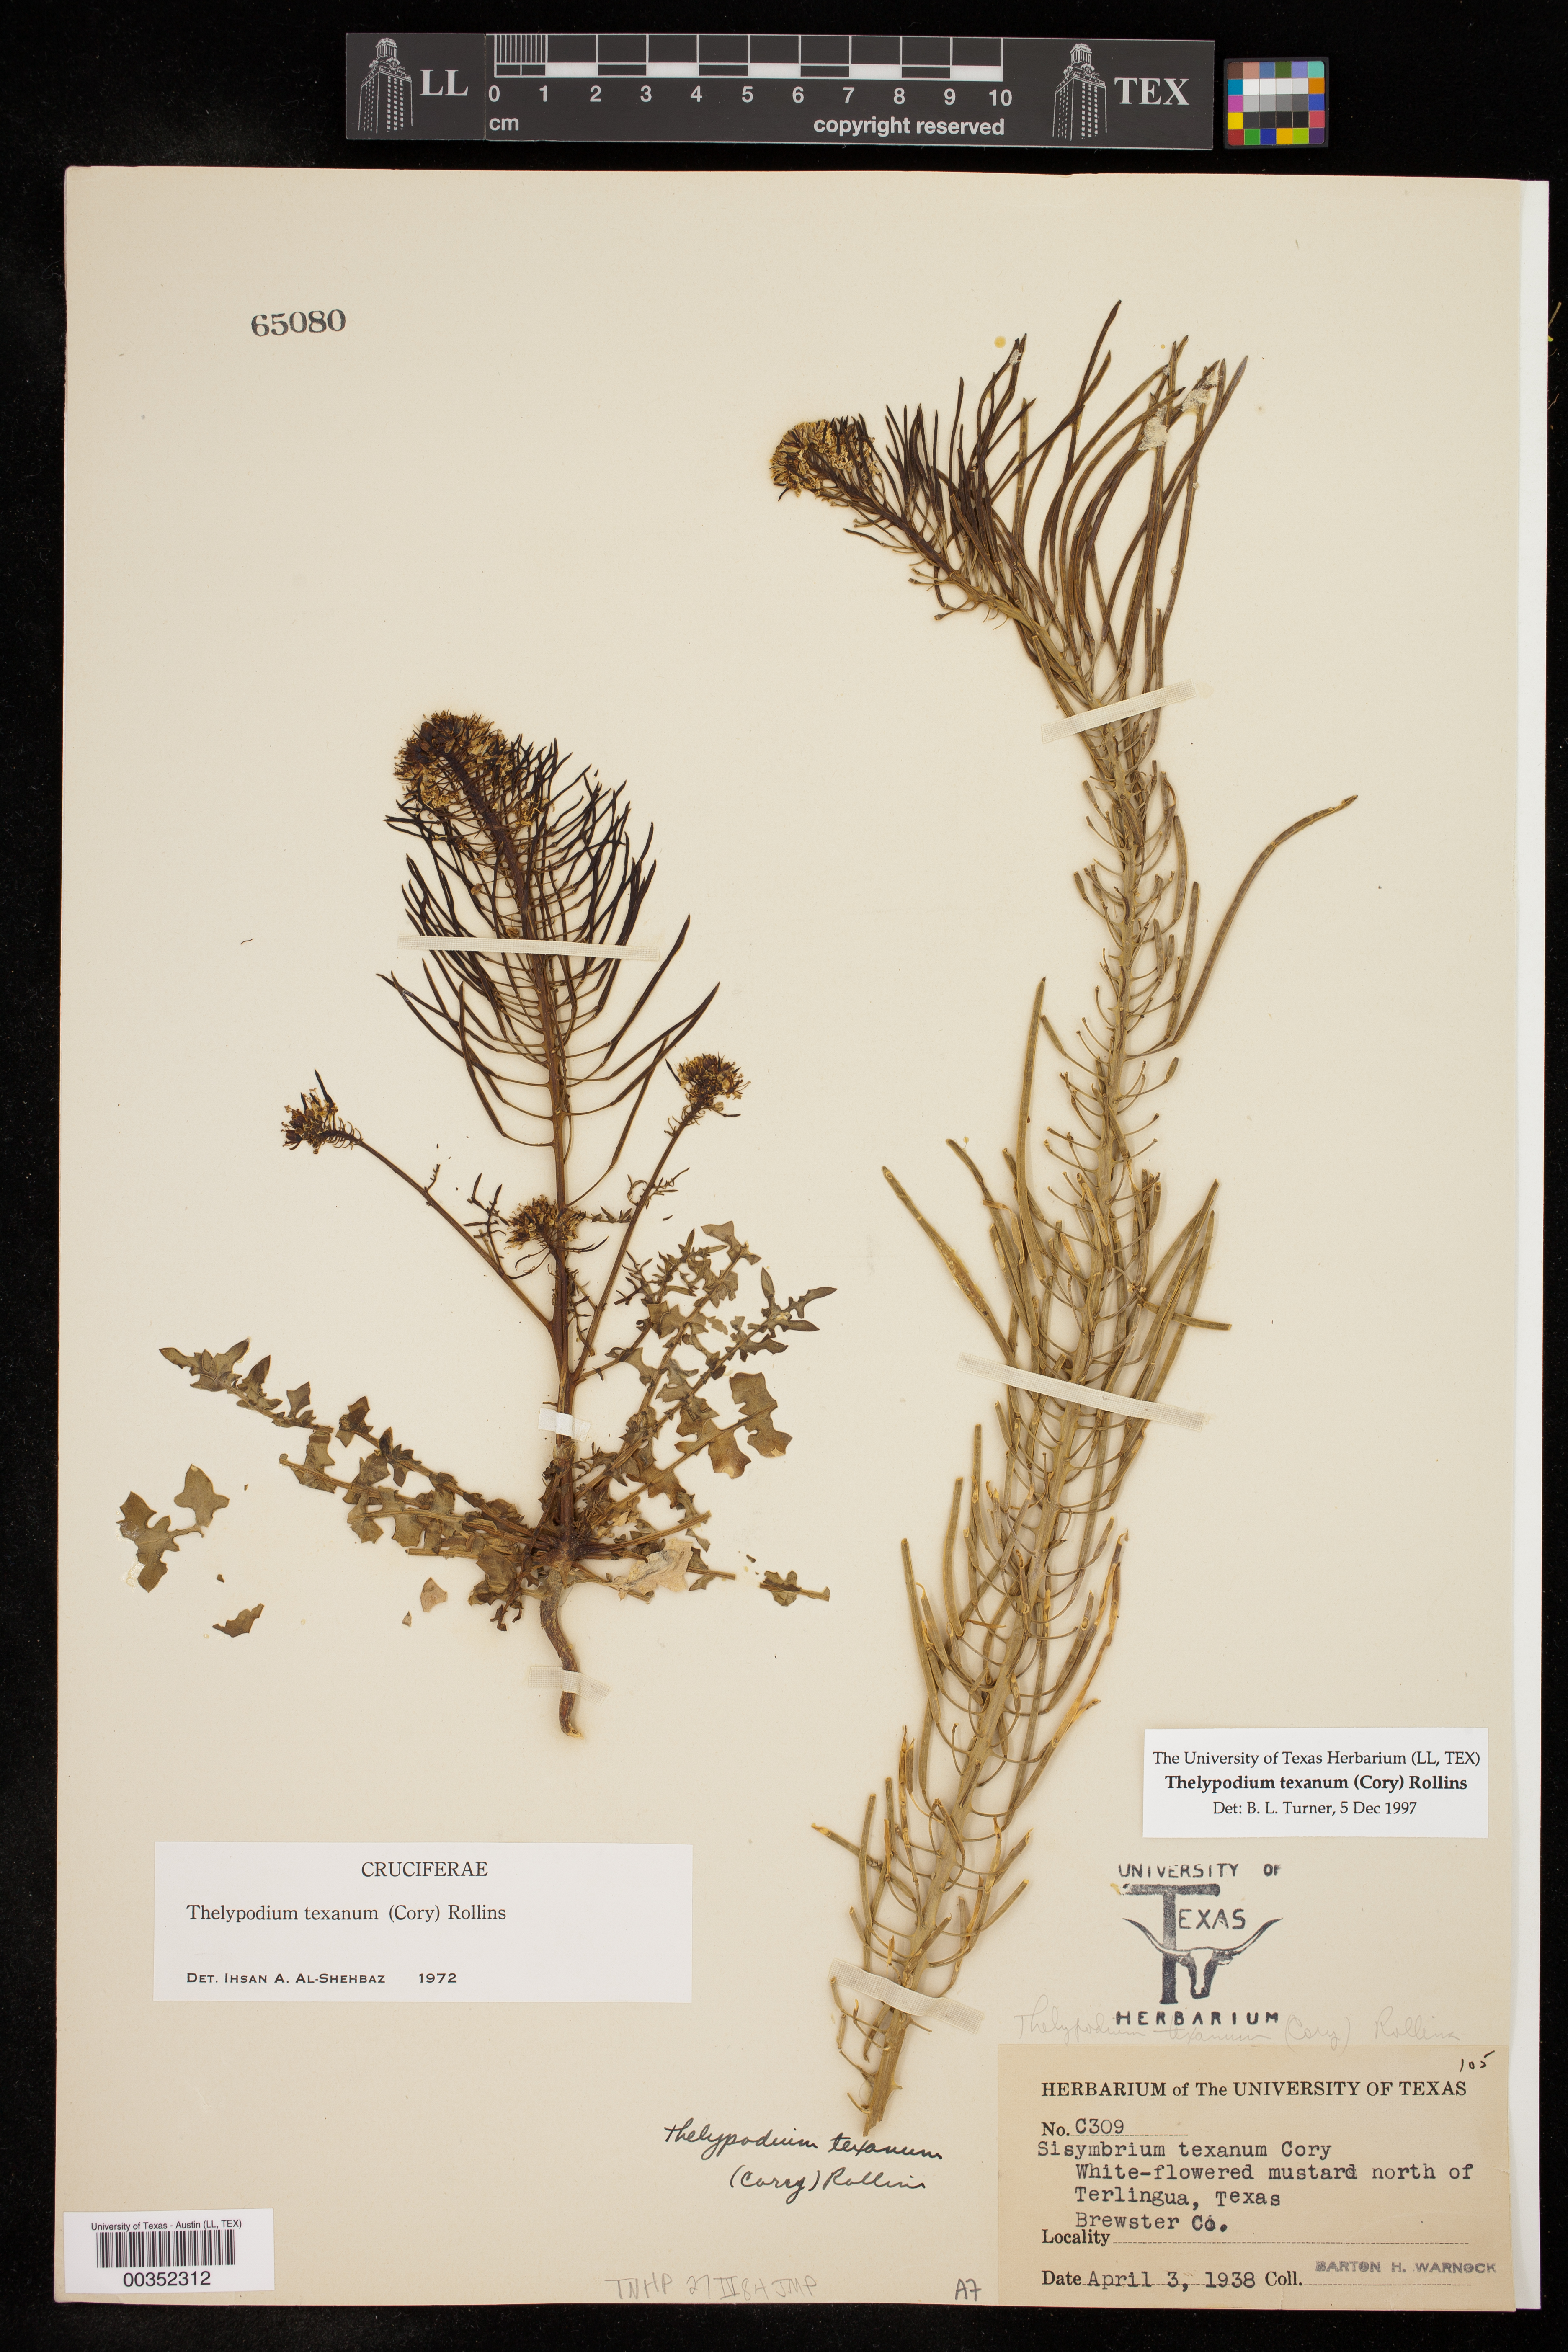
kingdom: Plantae
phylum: Tracheophyta
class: Magnoliopsida
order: Brassicales
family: Brassicaceae
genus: Thelypodium
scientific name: Thelypodium texanum
